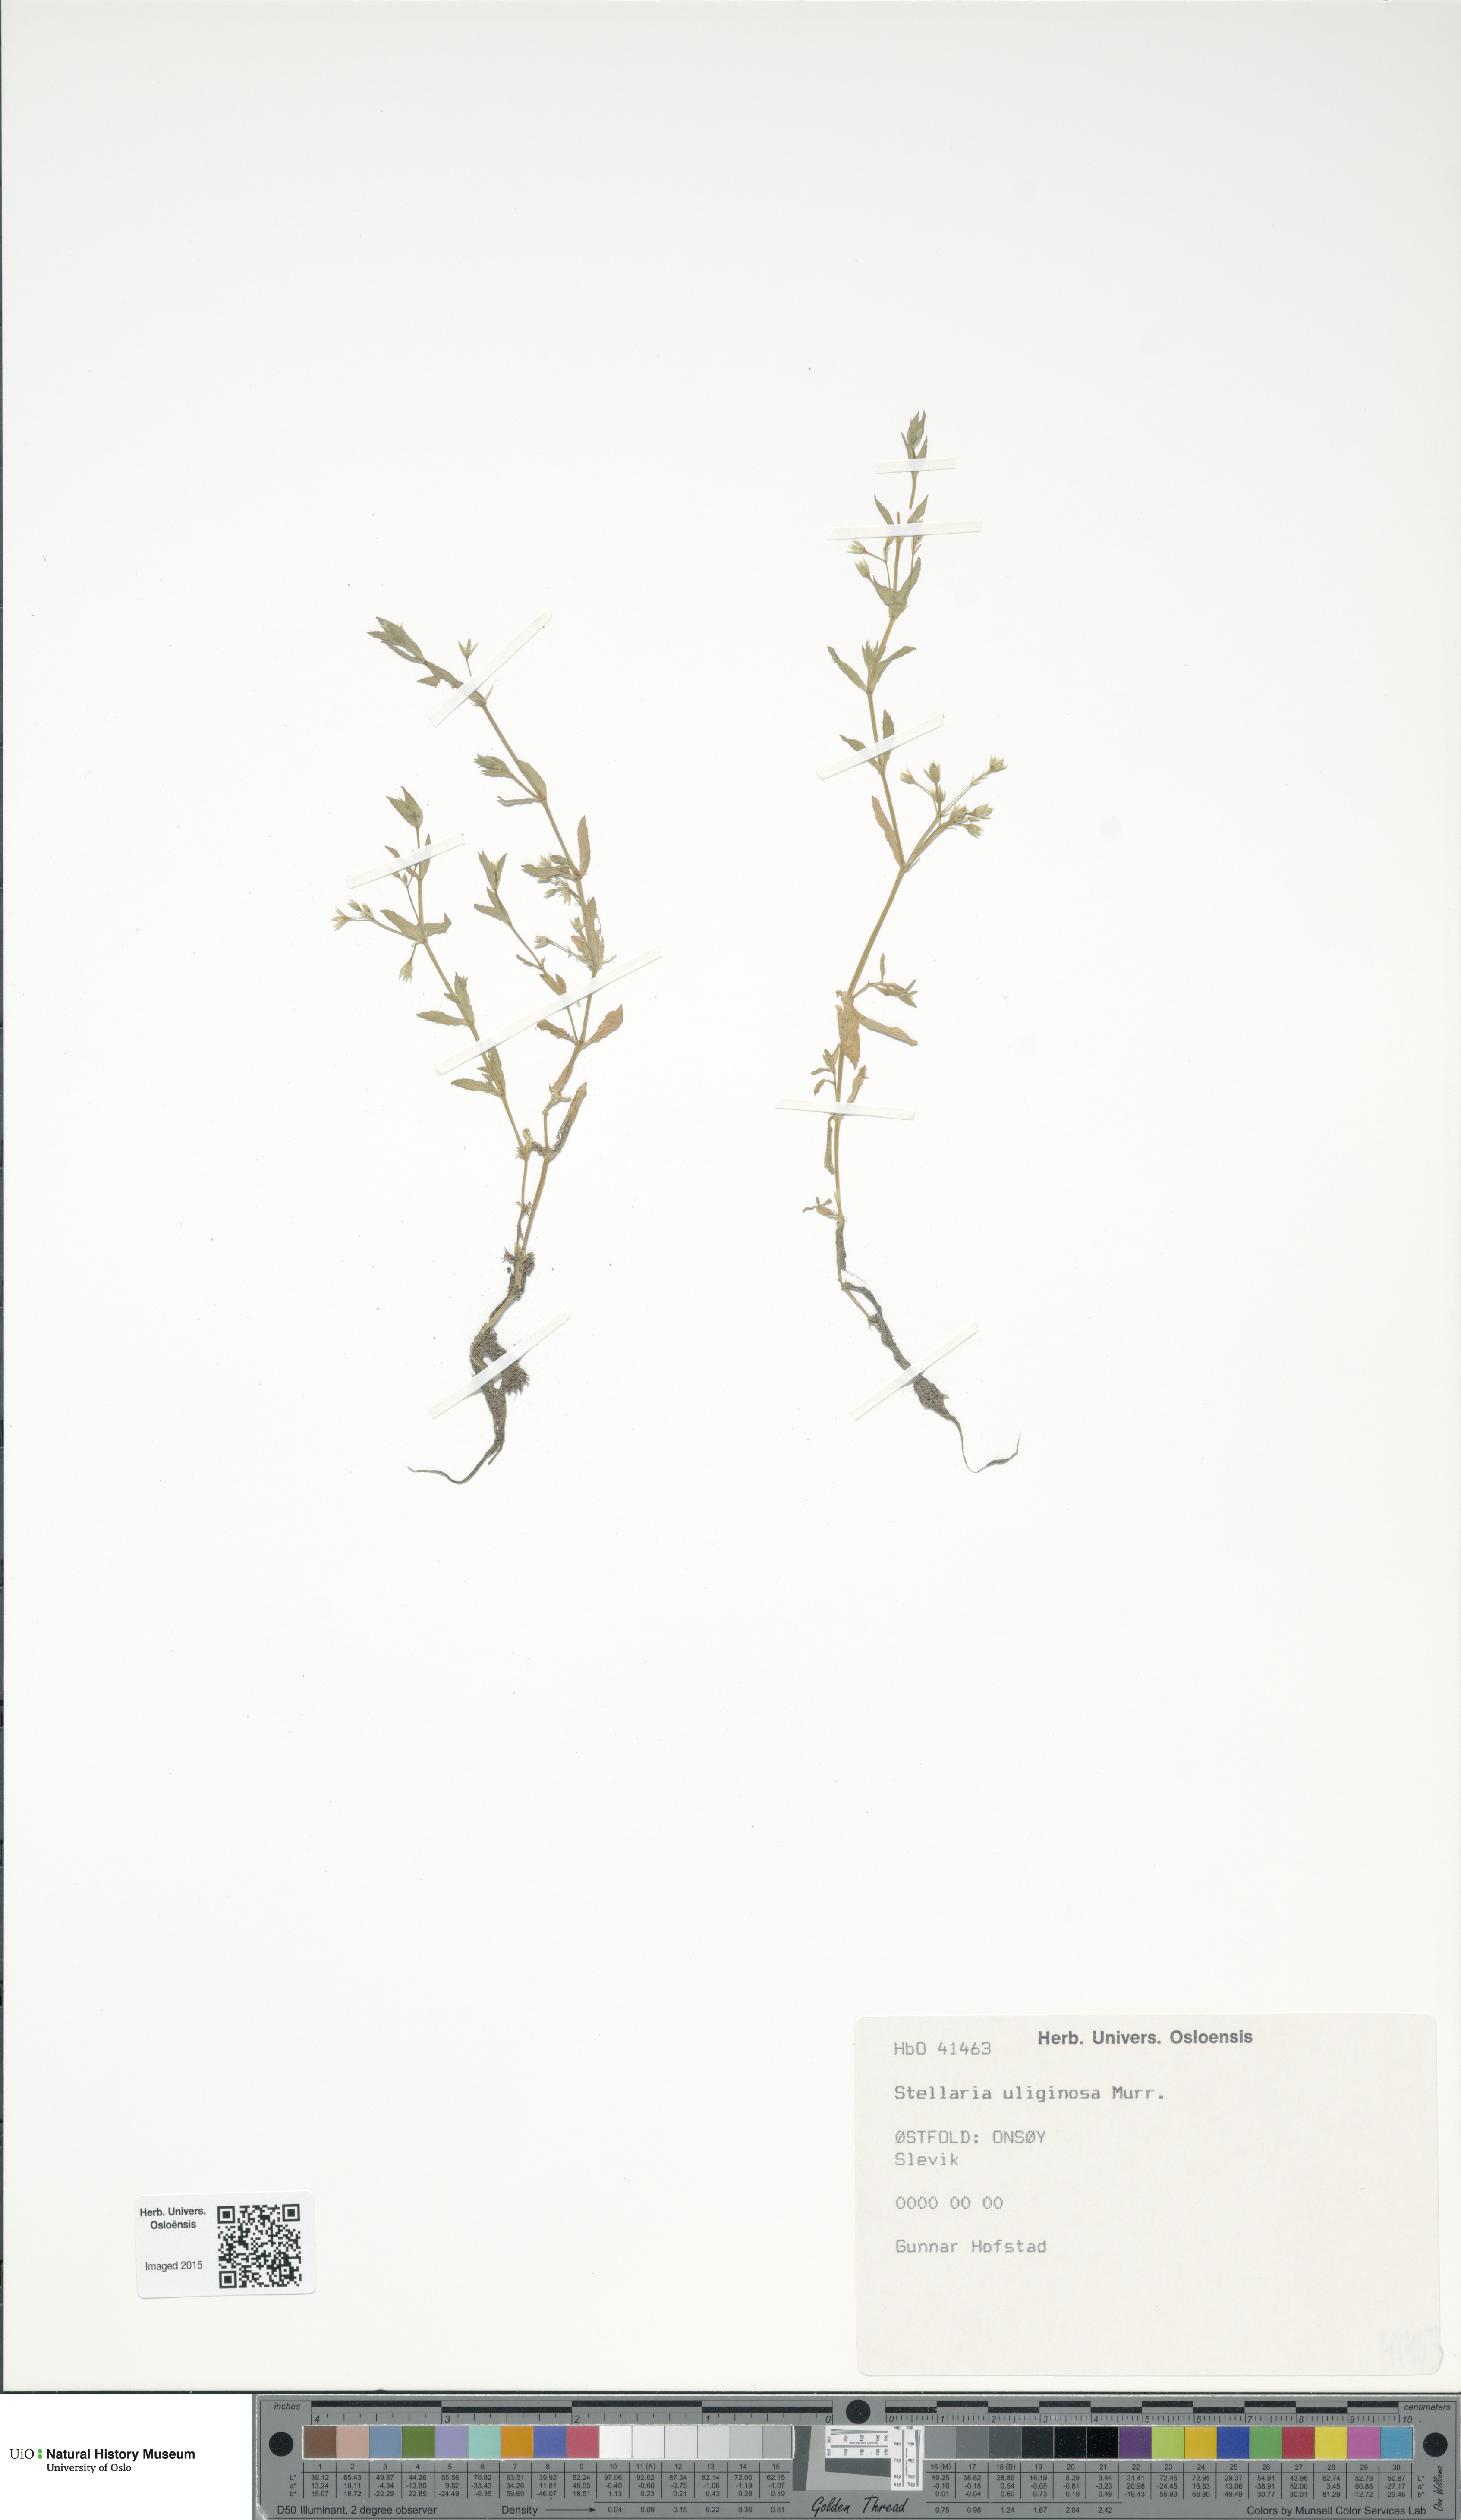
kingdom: Plantae
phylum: Tracheophyta
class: Magnoliopsida
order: Caryophyllales
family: Caryophyllaceae
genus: Stellaria
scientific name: Stellaria alsine
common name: Bog stitchwort
